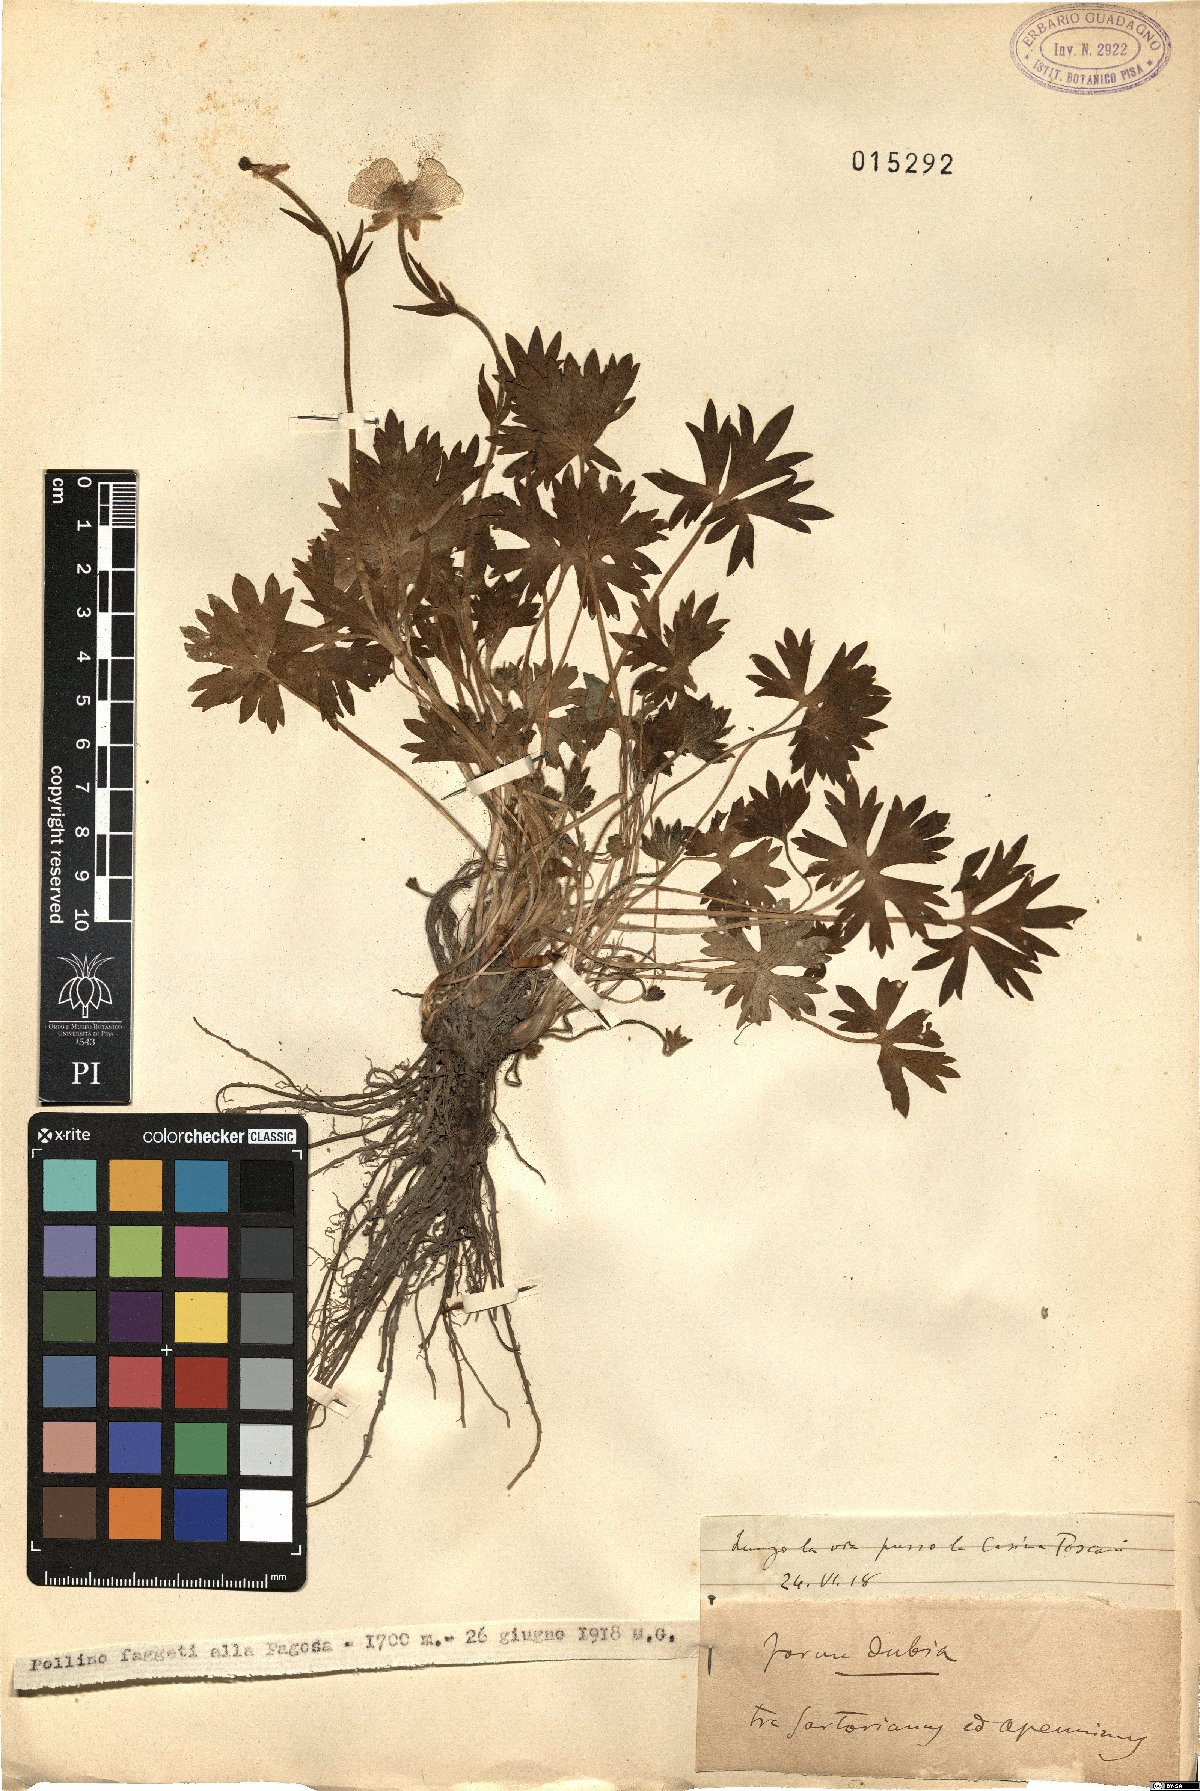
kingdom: Plantae
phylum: Tracheophyta
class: Magnoliopsida
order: Ranunculales
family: Ranunculaceae
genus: Ranunculus
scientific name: Ranunculus sartorianus
